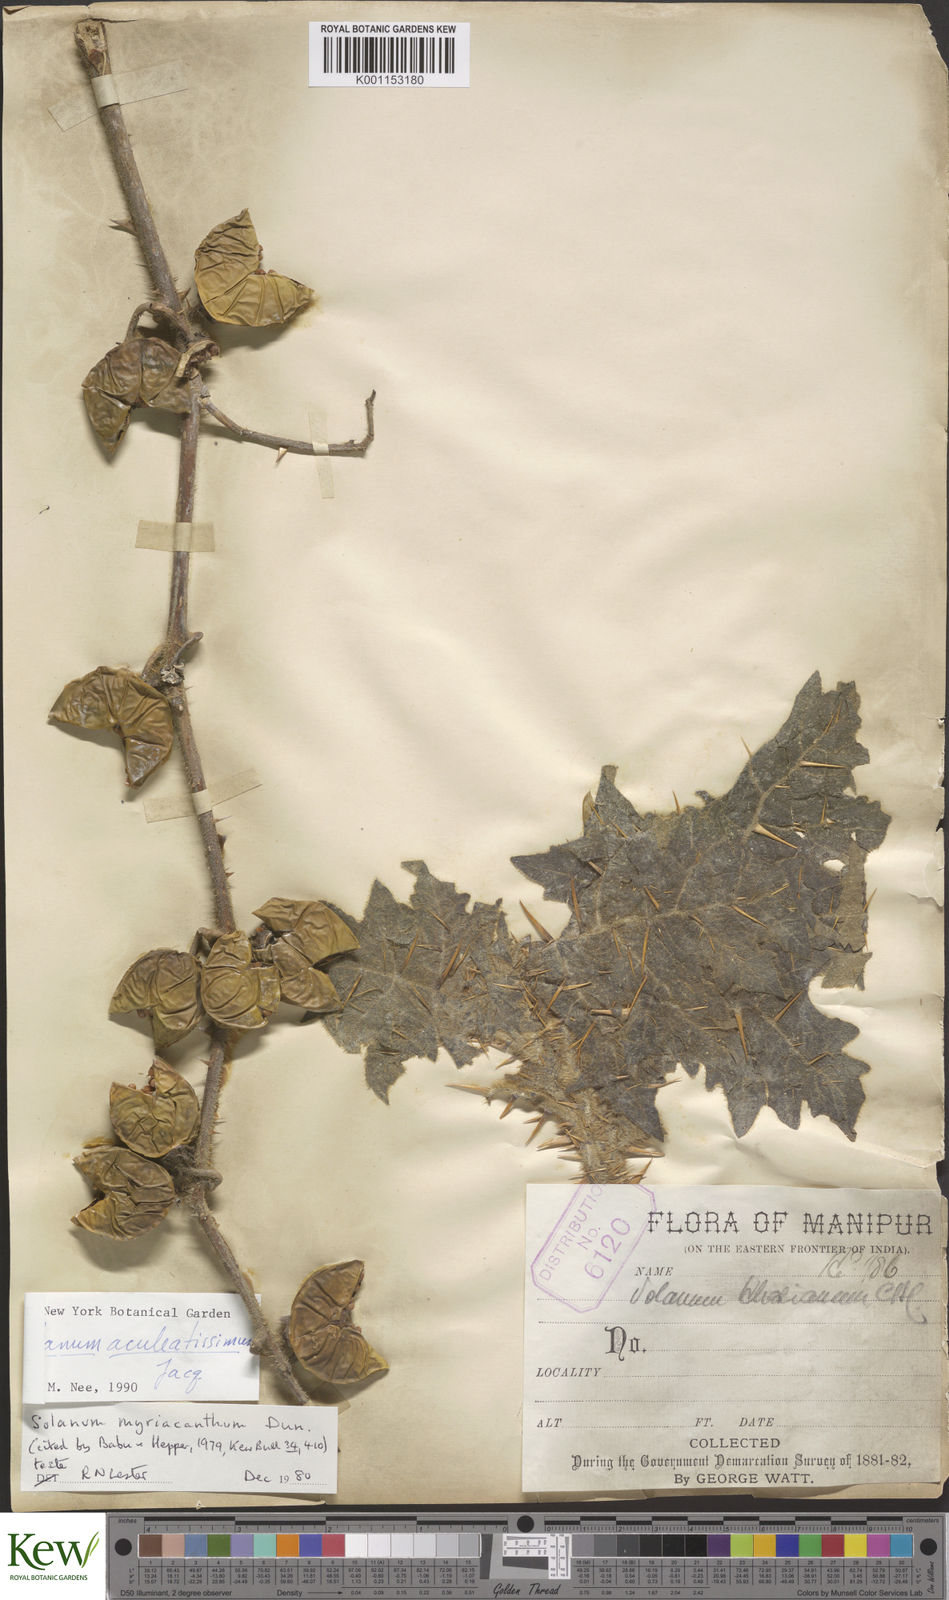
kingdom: Plantae
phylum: Tracheophyta
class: Magnoliopsida
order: Solanales
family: Solanaceae
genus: Solanum
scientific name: Solanum myriacanthum
